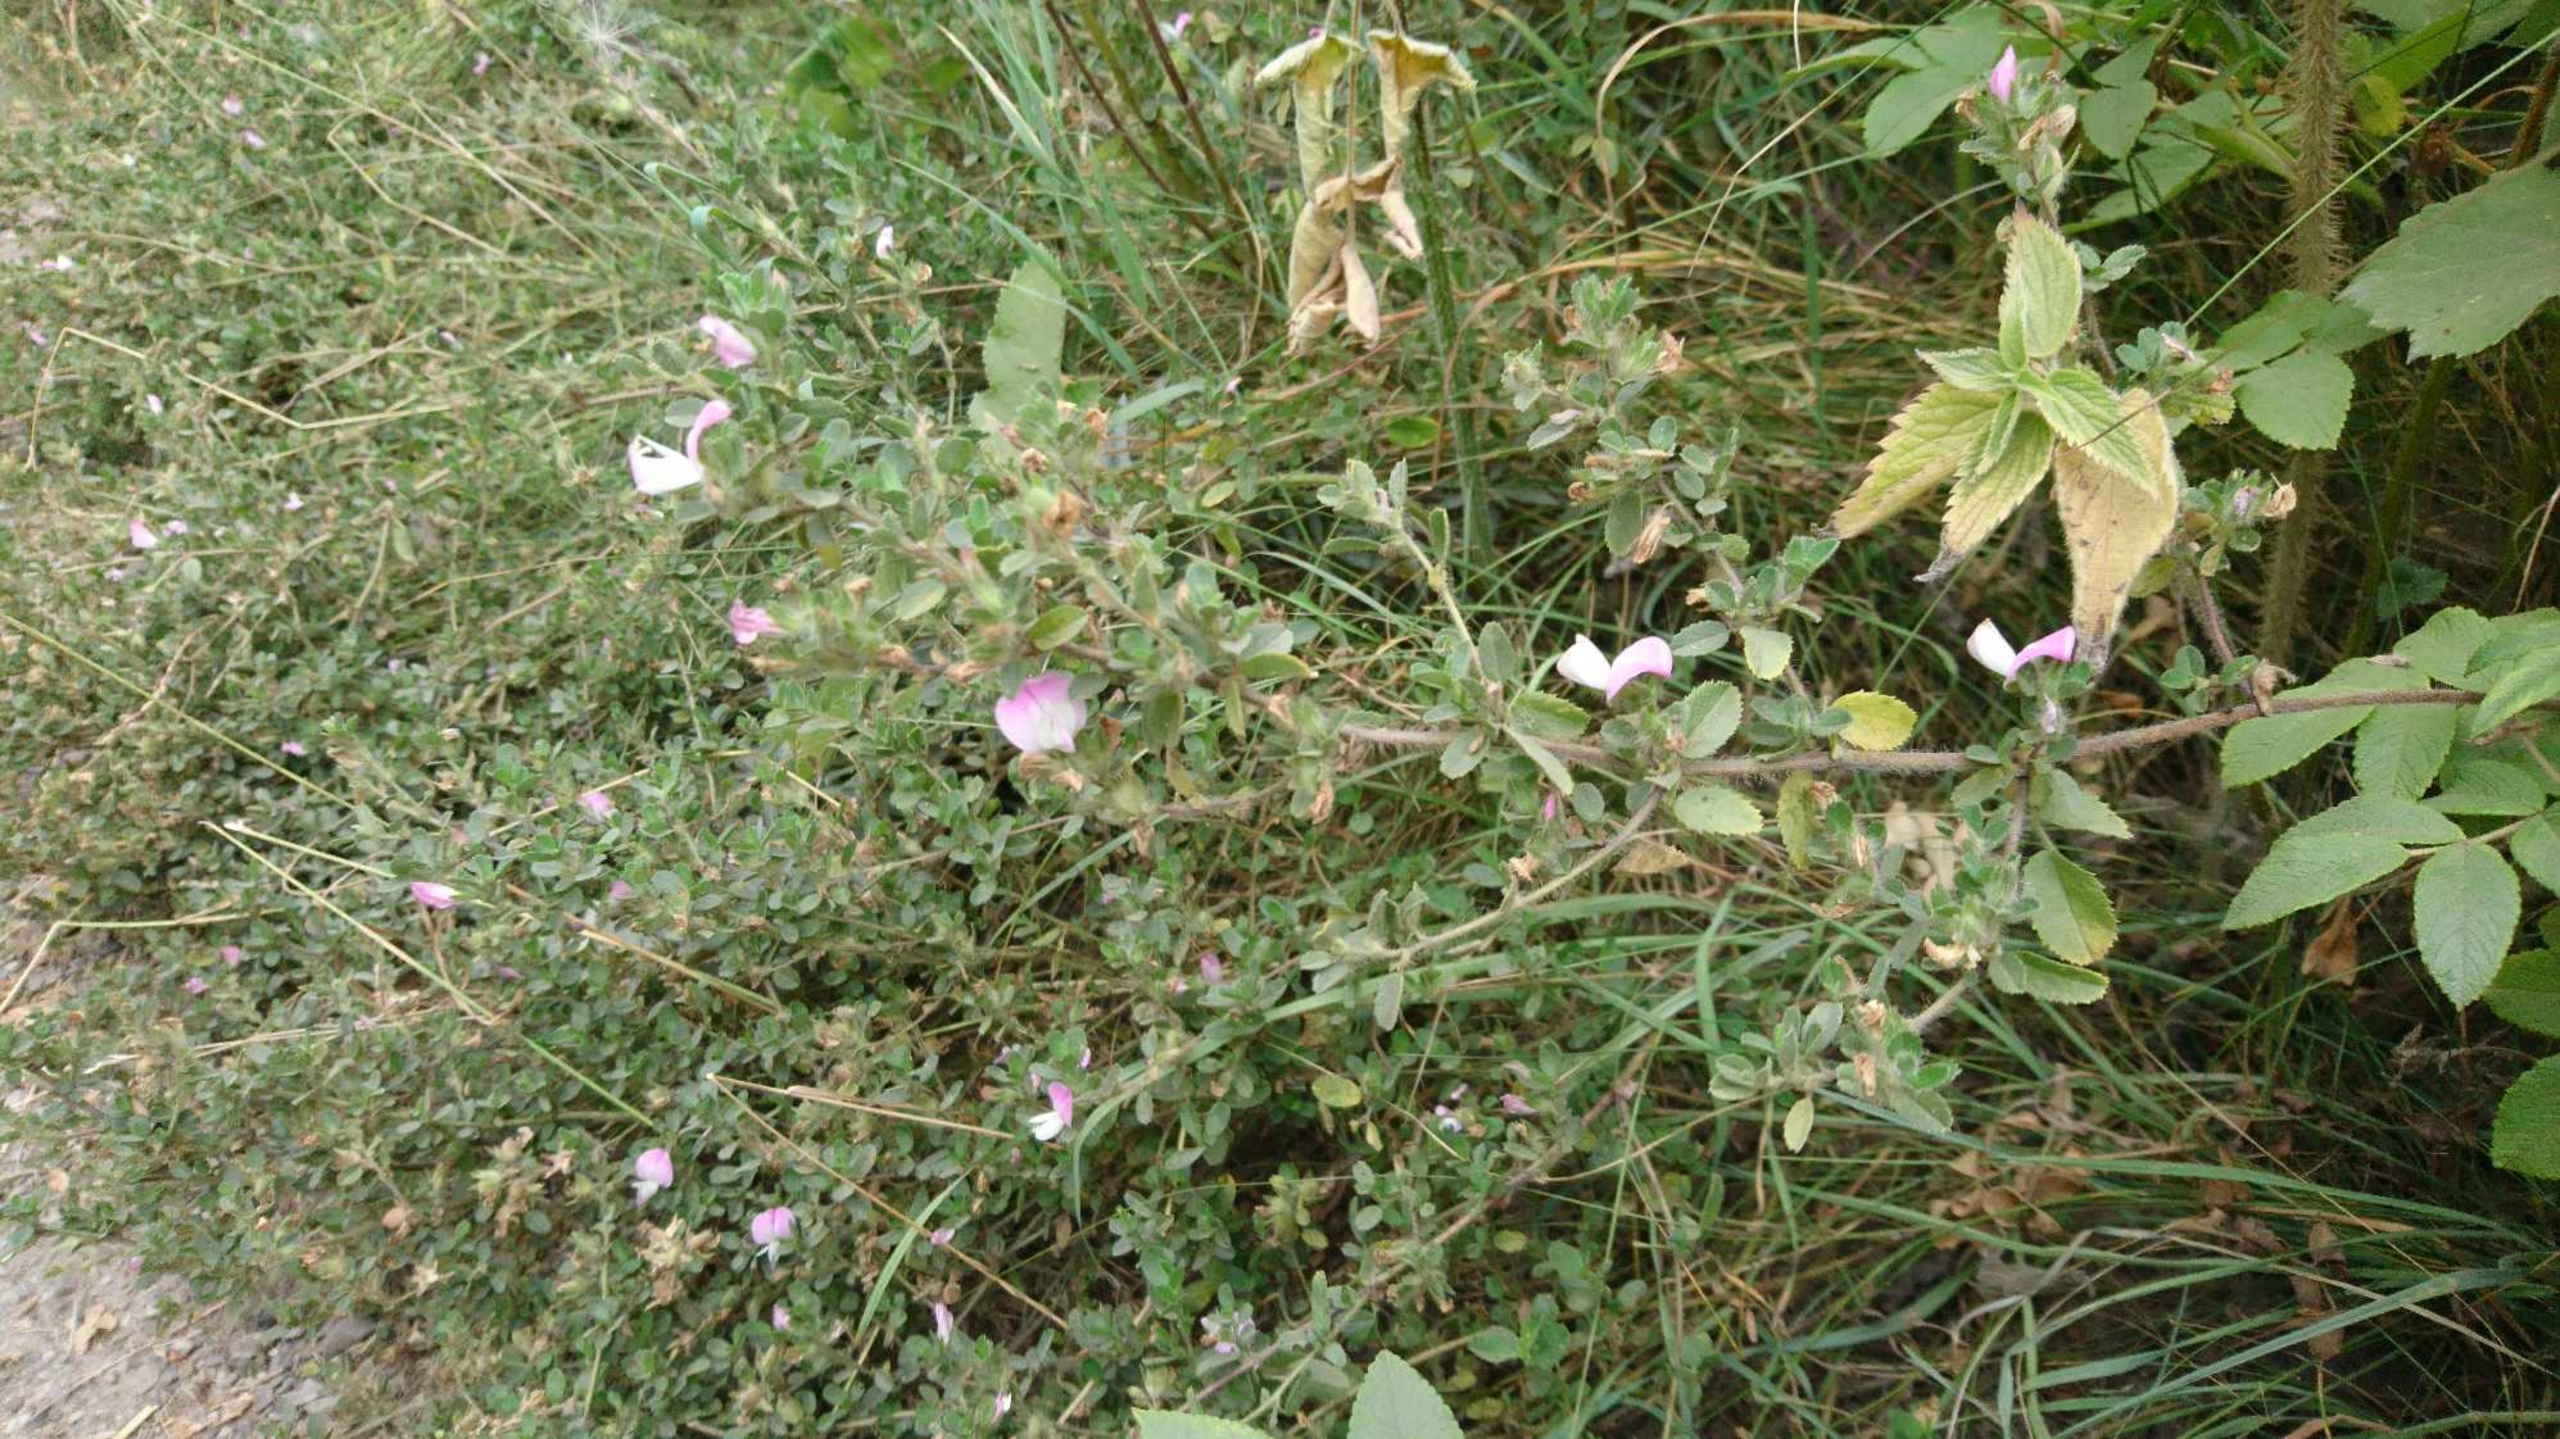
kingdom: Plantae
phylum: Tracheophyta
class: Magnoliopsida
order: Fabales
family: Fabaceae
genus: Ononis
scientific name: Ononis spinosa
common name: Mark-krageklo
